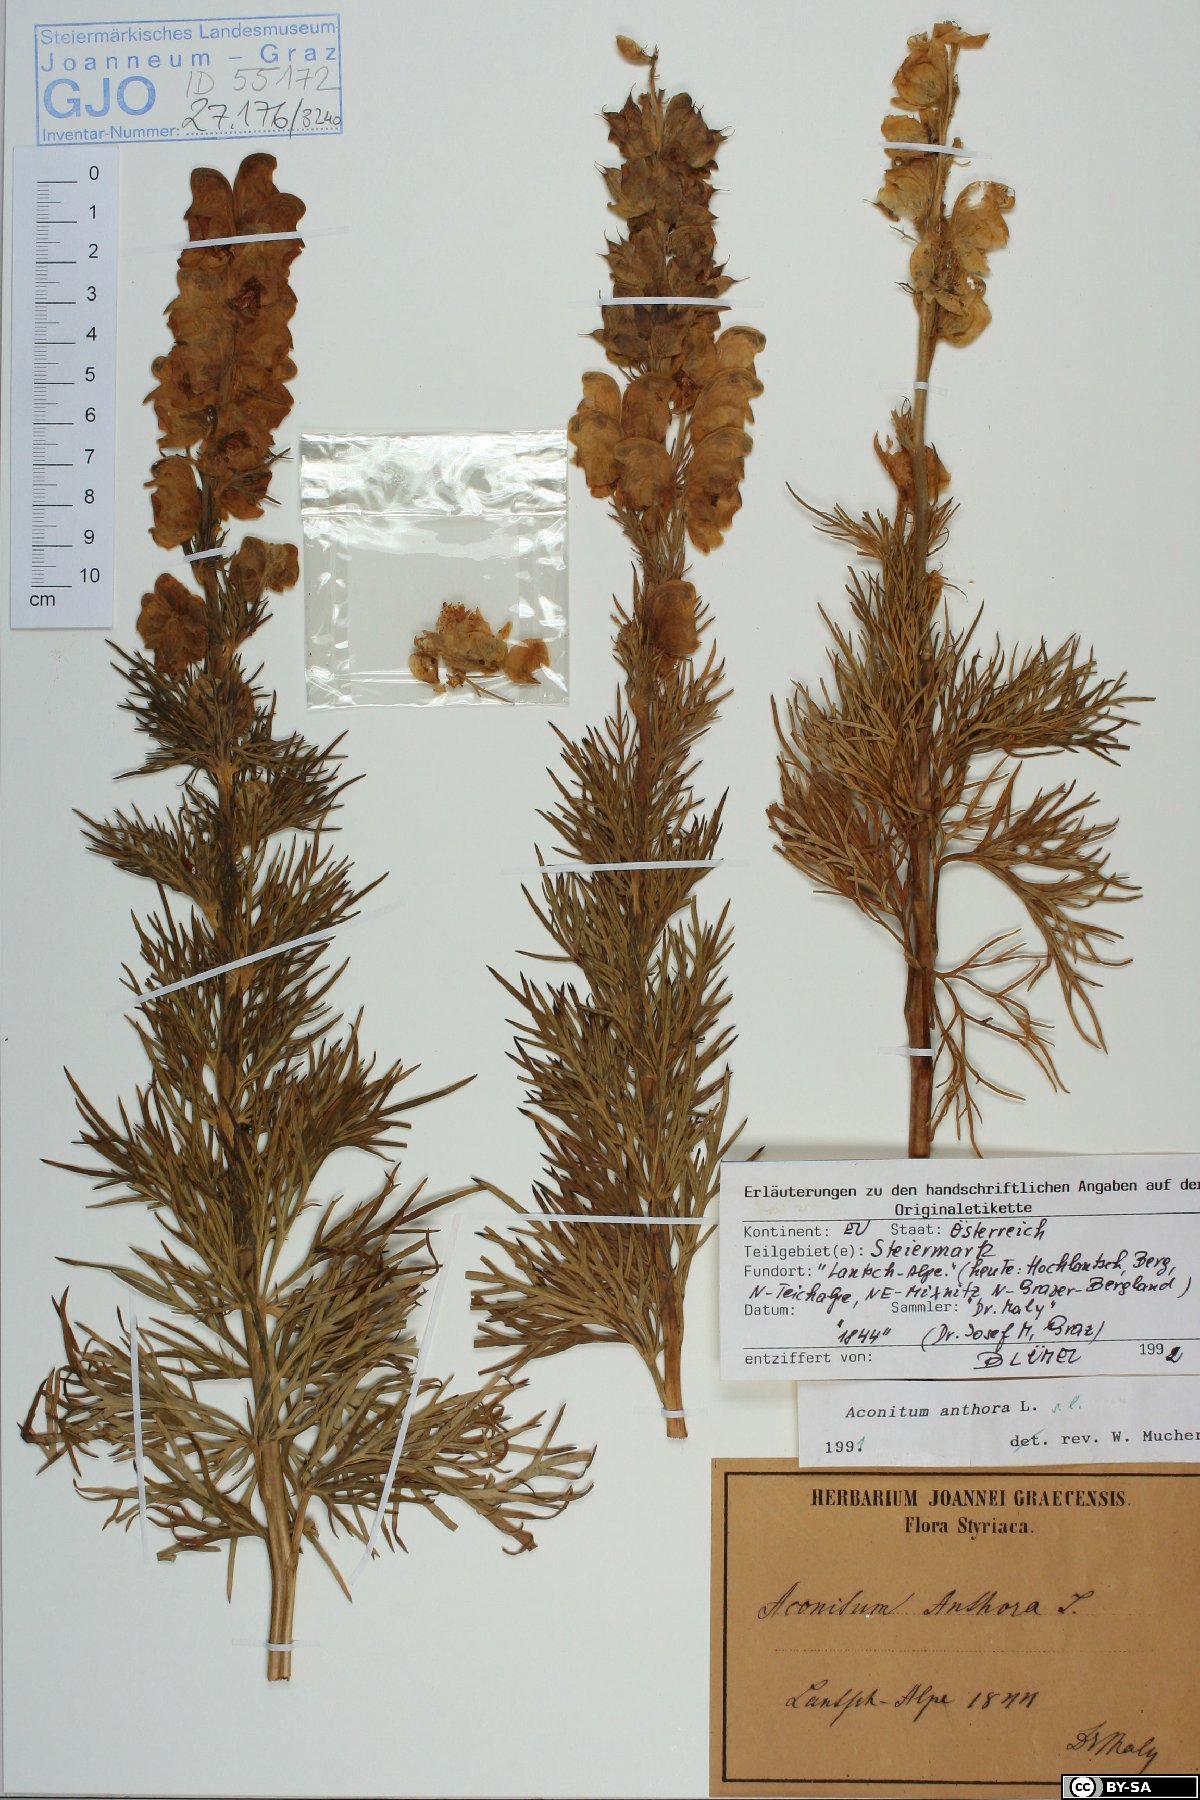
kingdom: Plantae
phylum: Tracheophyta
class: Magnoliopsida
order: Ranunculales
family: Ranunculaceae
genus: Aconitum
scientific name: Aconitum anthora
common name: Yellow monkshood
